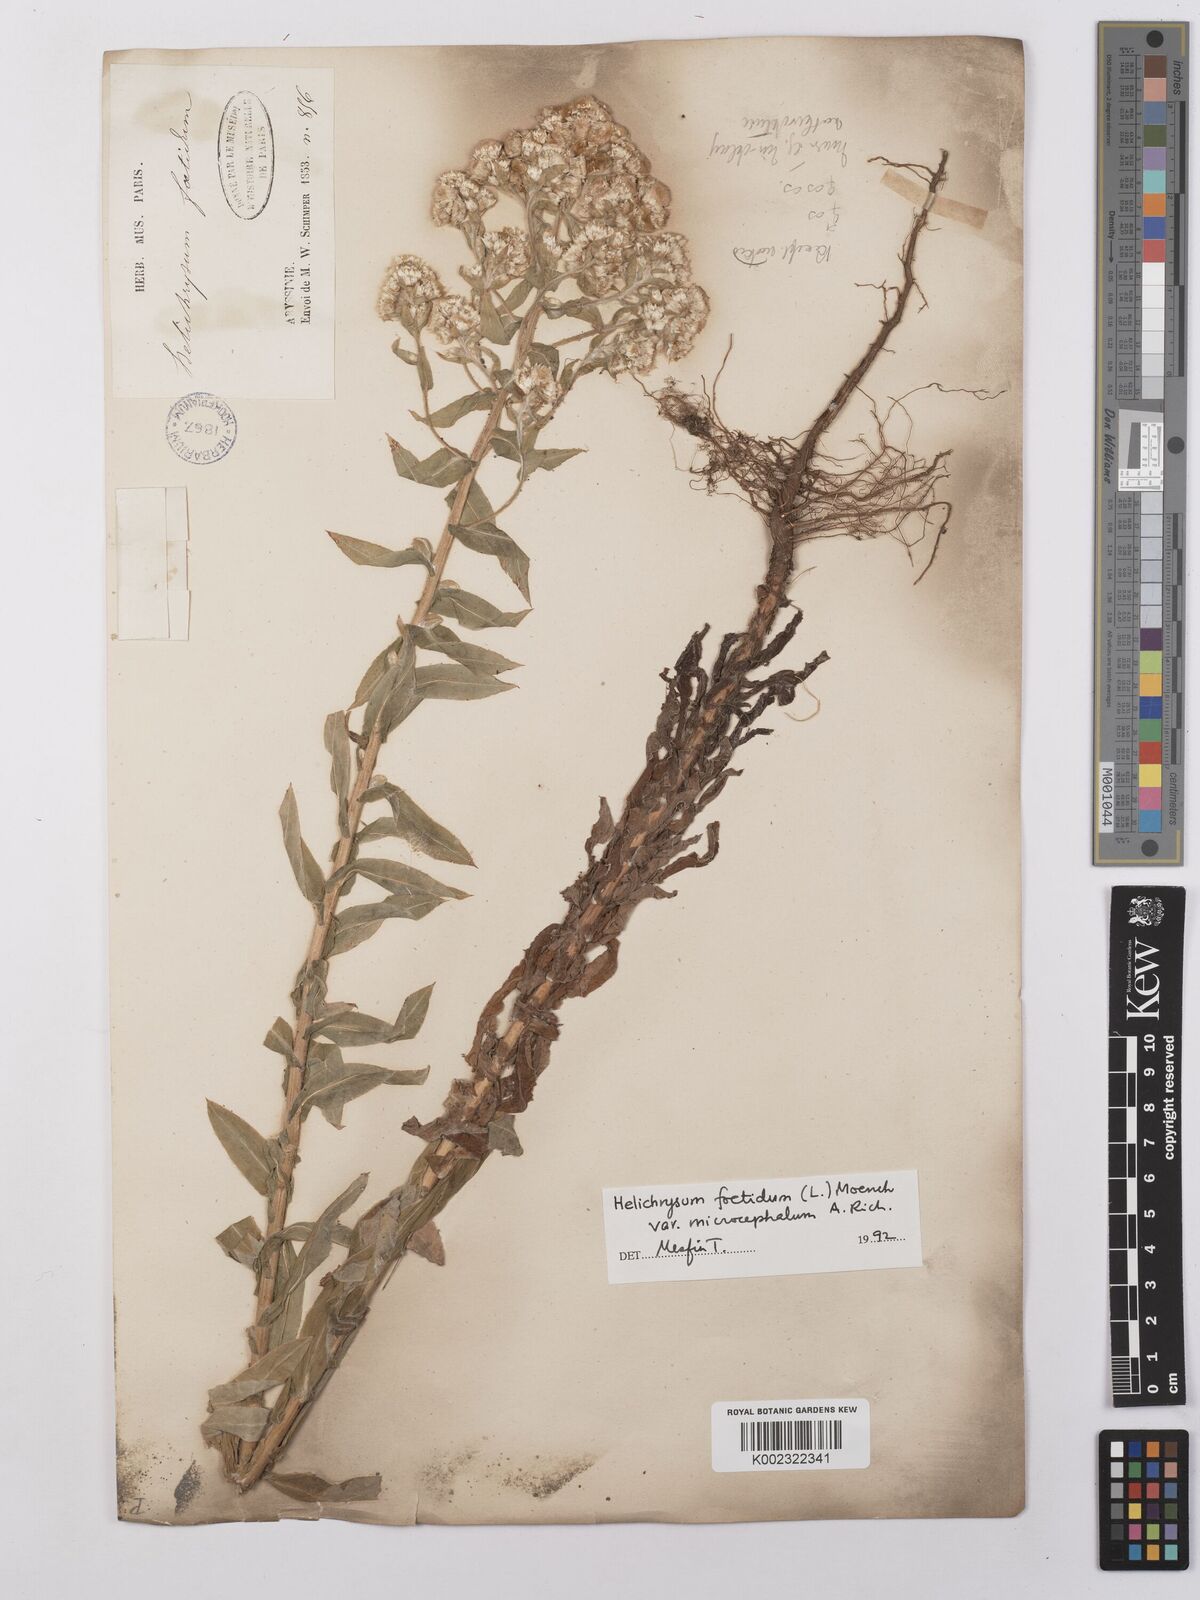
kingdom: Plantae
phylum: Tracheophyta
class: Magnoliopsida
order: Asterales
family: Asteraceae
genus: Helichrysum
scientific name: Helichrysum foetidum
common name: Stinking everlasting
